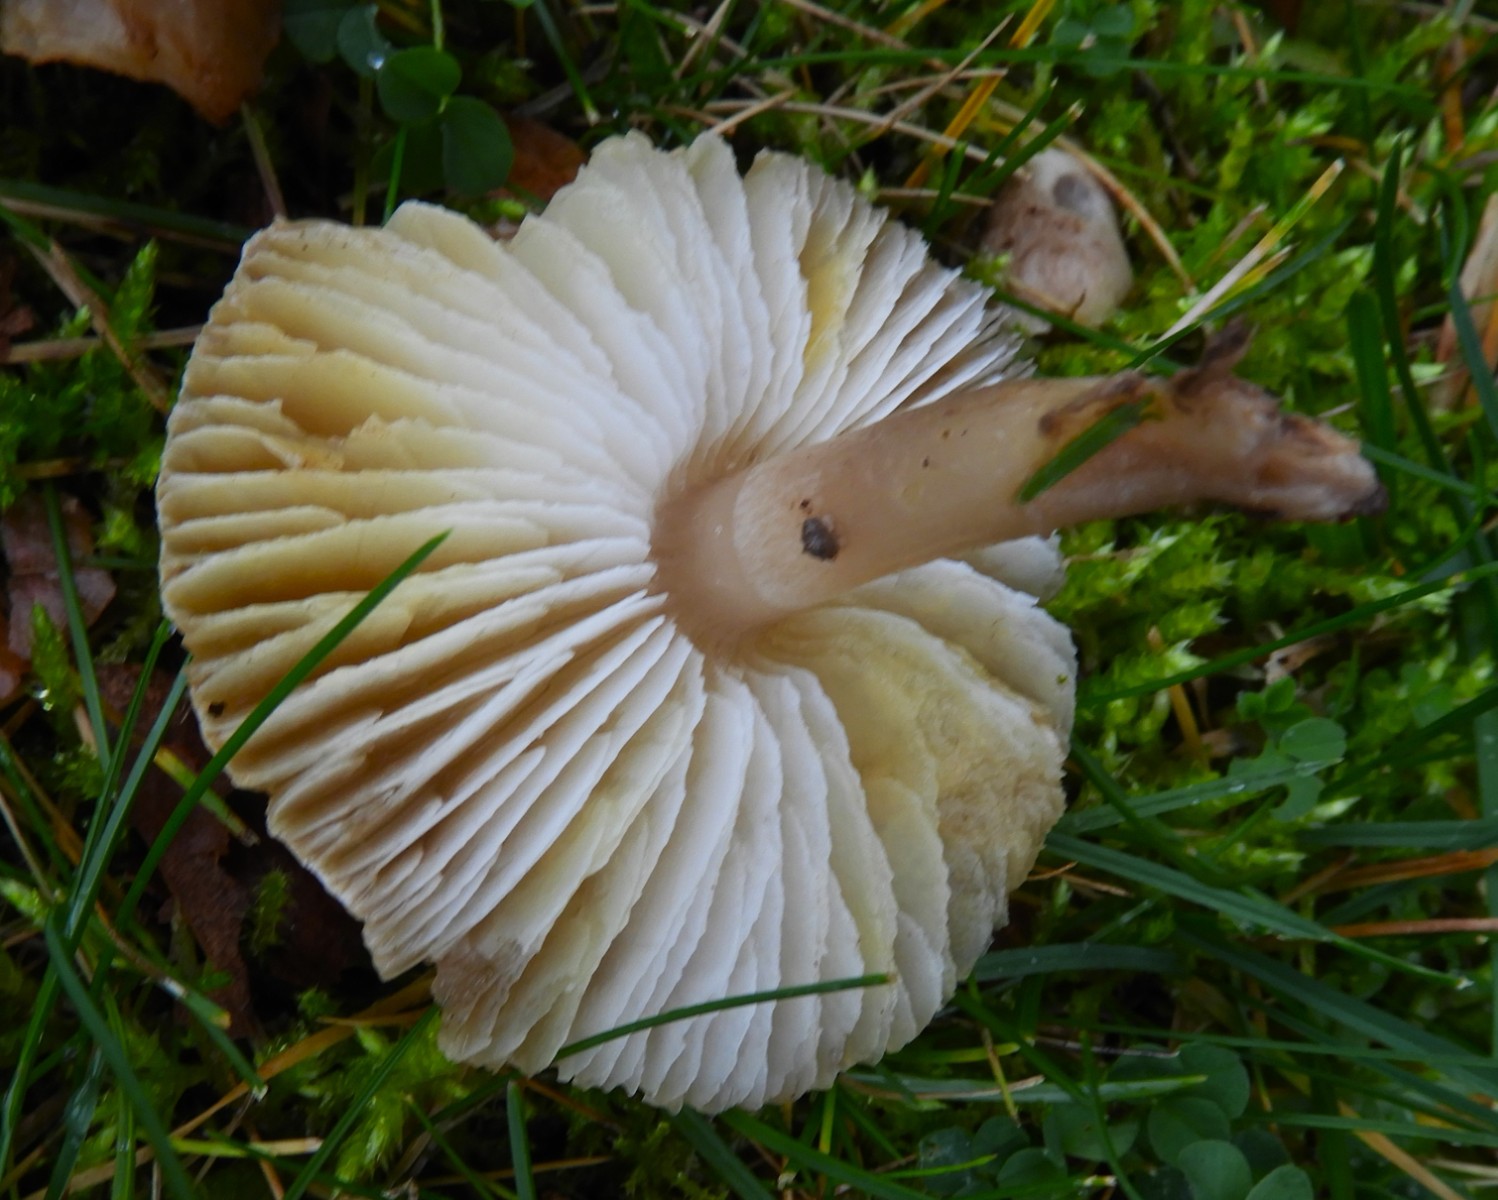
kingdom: Fungi
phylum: Basidiomycota
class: Agaricomycetes
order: Agaricales
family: Tricholomataceae
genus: Tricholoma
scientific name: Tricholoma scalpturatum
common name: gulplettet ridderhat
